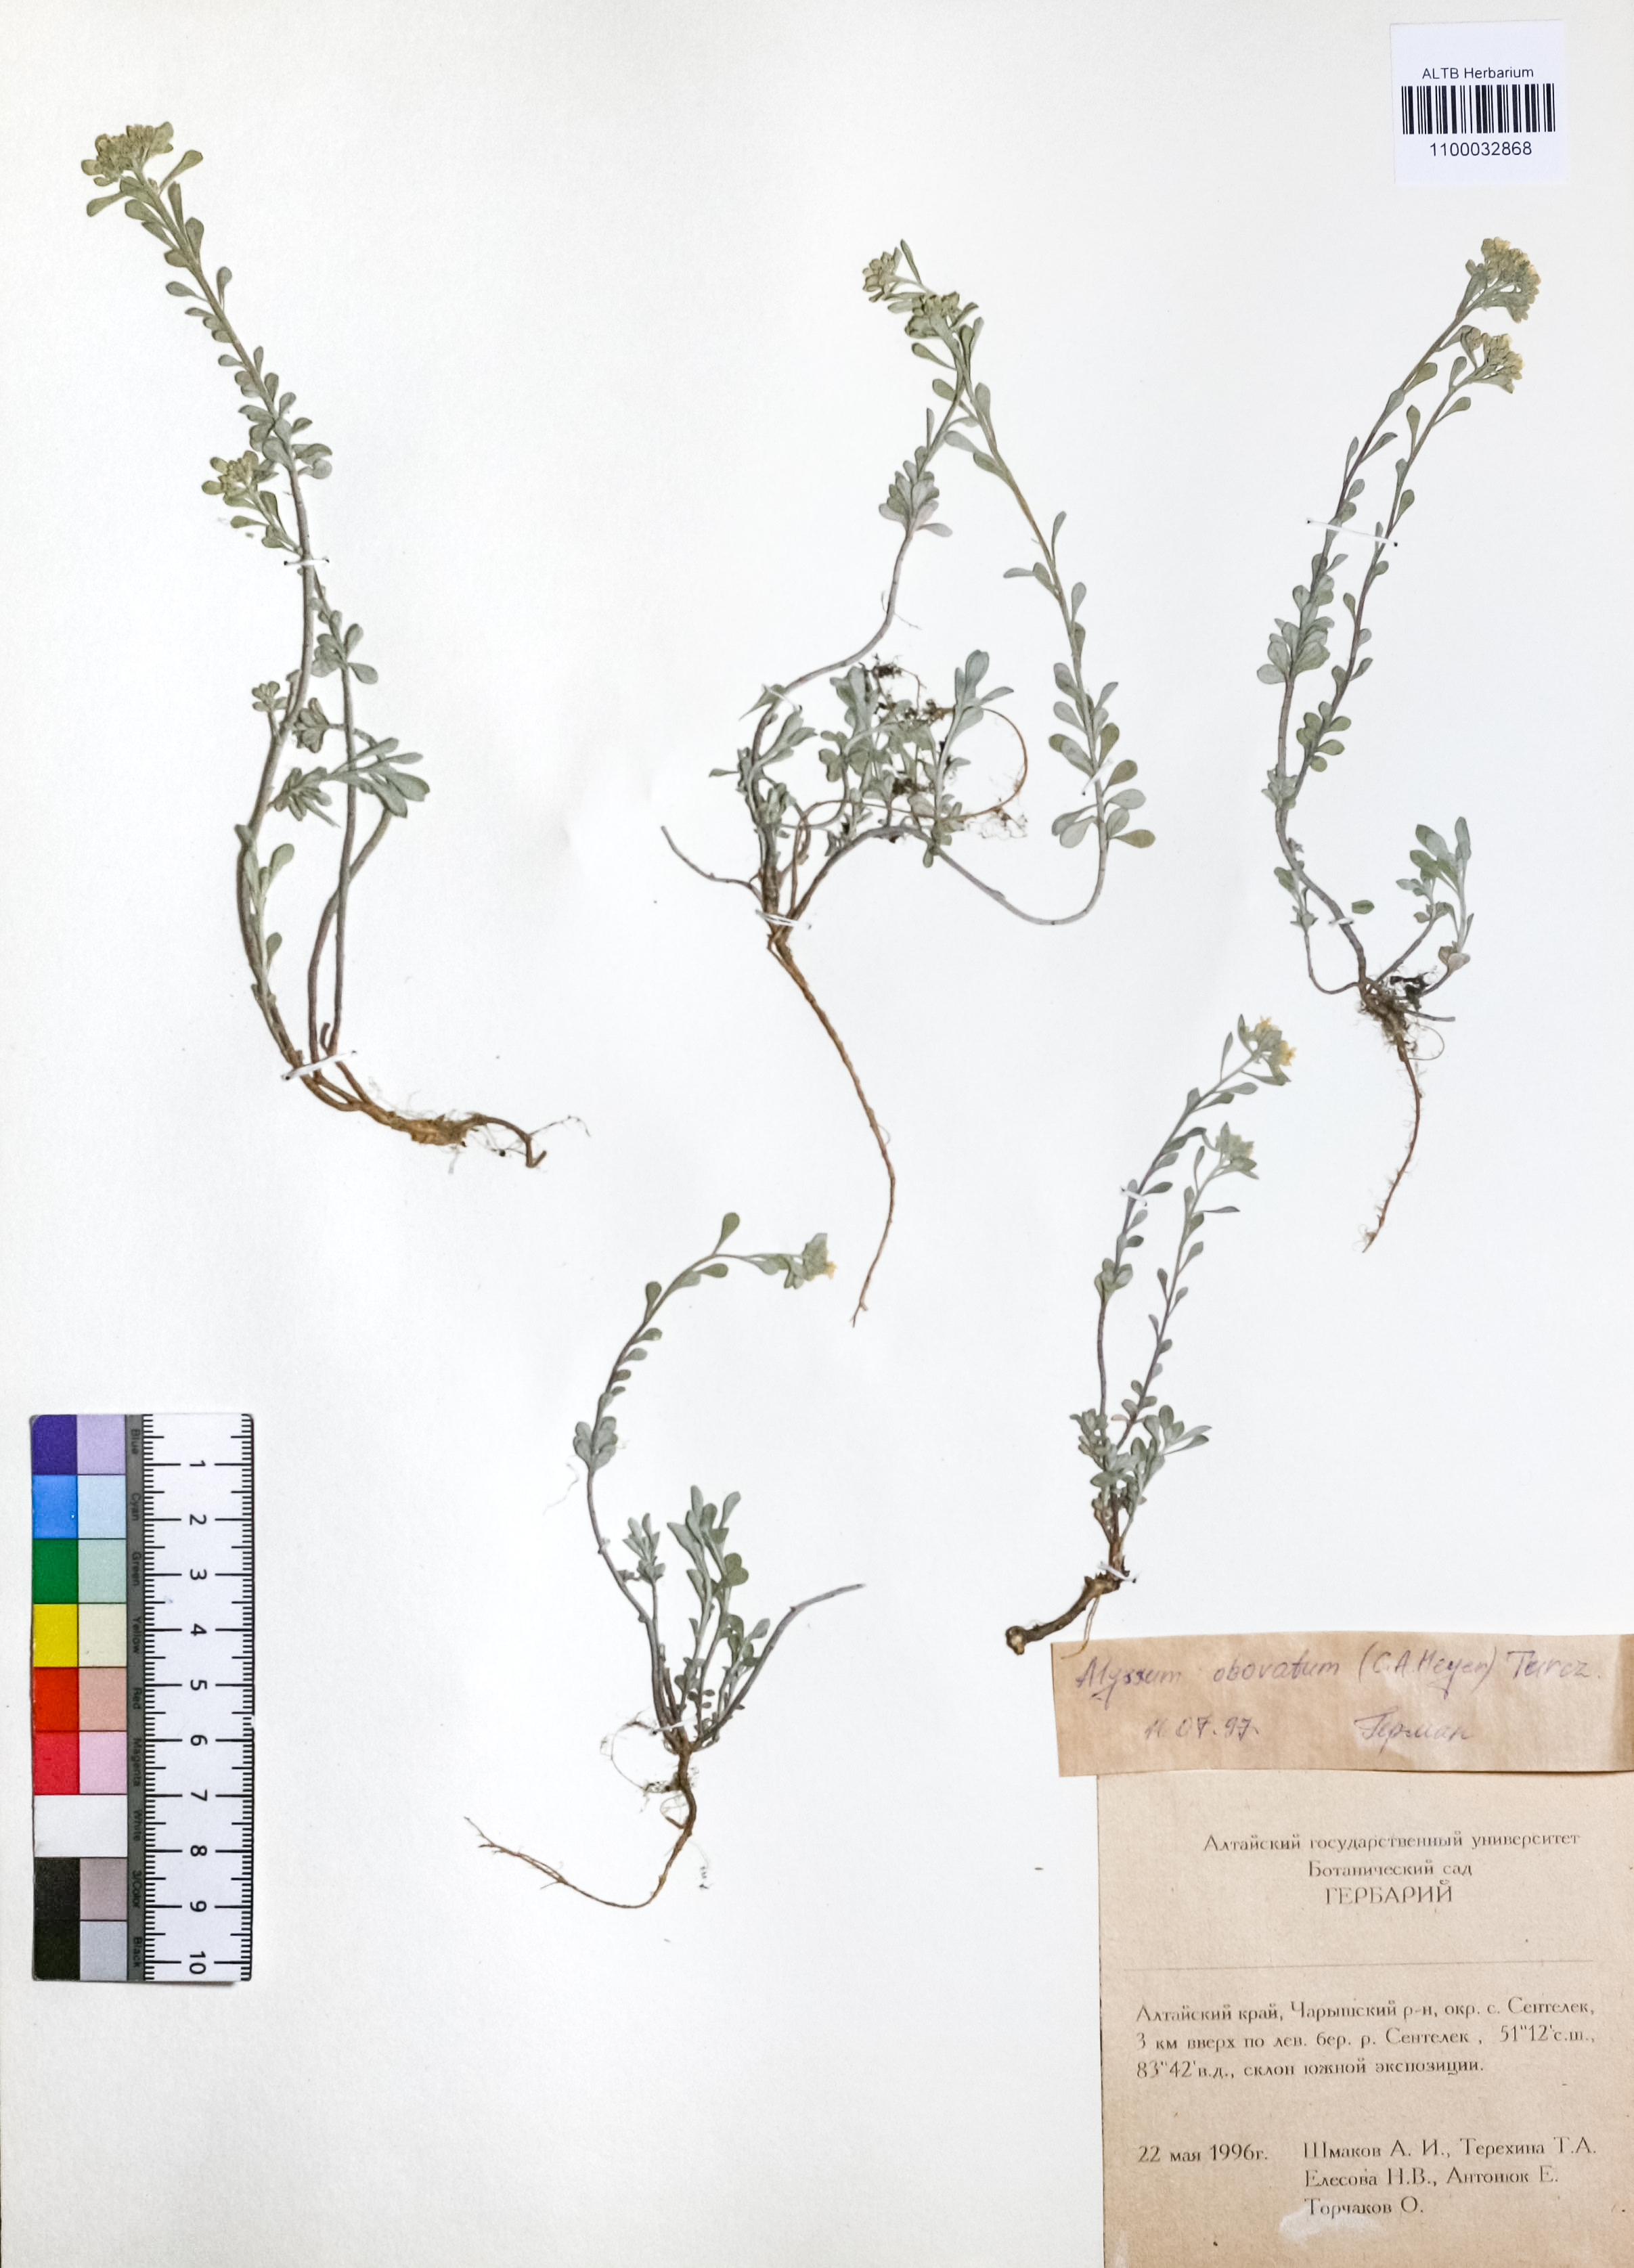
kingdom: Plantae
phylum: Tracheophyta
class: Magnoliopsida
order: Brassicales
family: Brassicaceae
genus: Odontarrhena
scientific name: Odontarrhena obovata
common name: American alyssum
